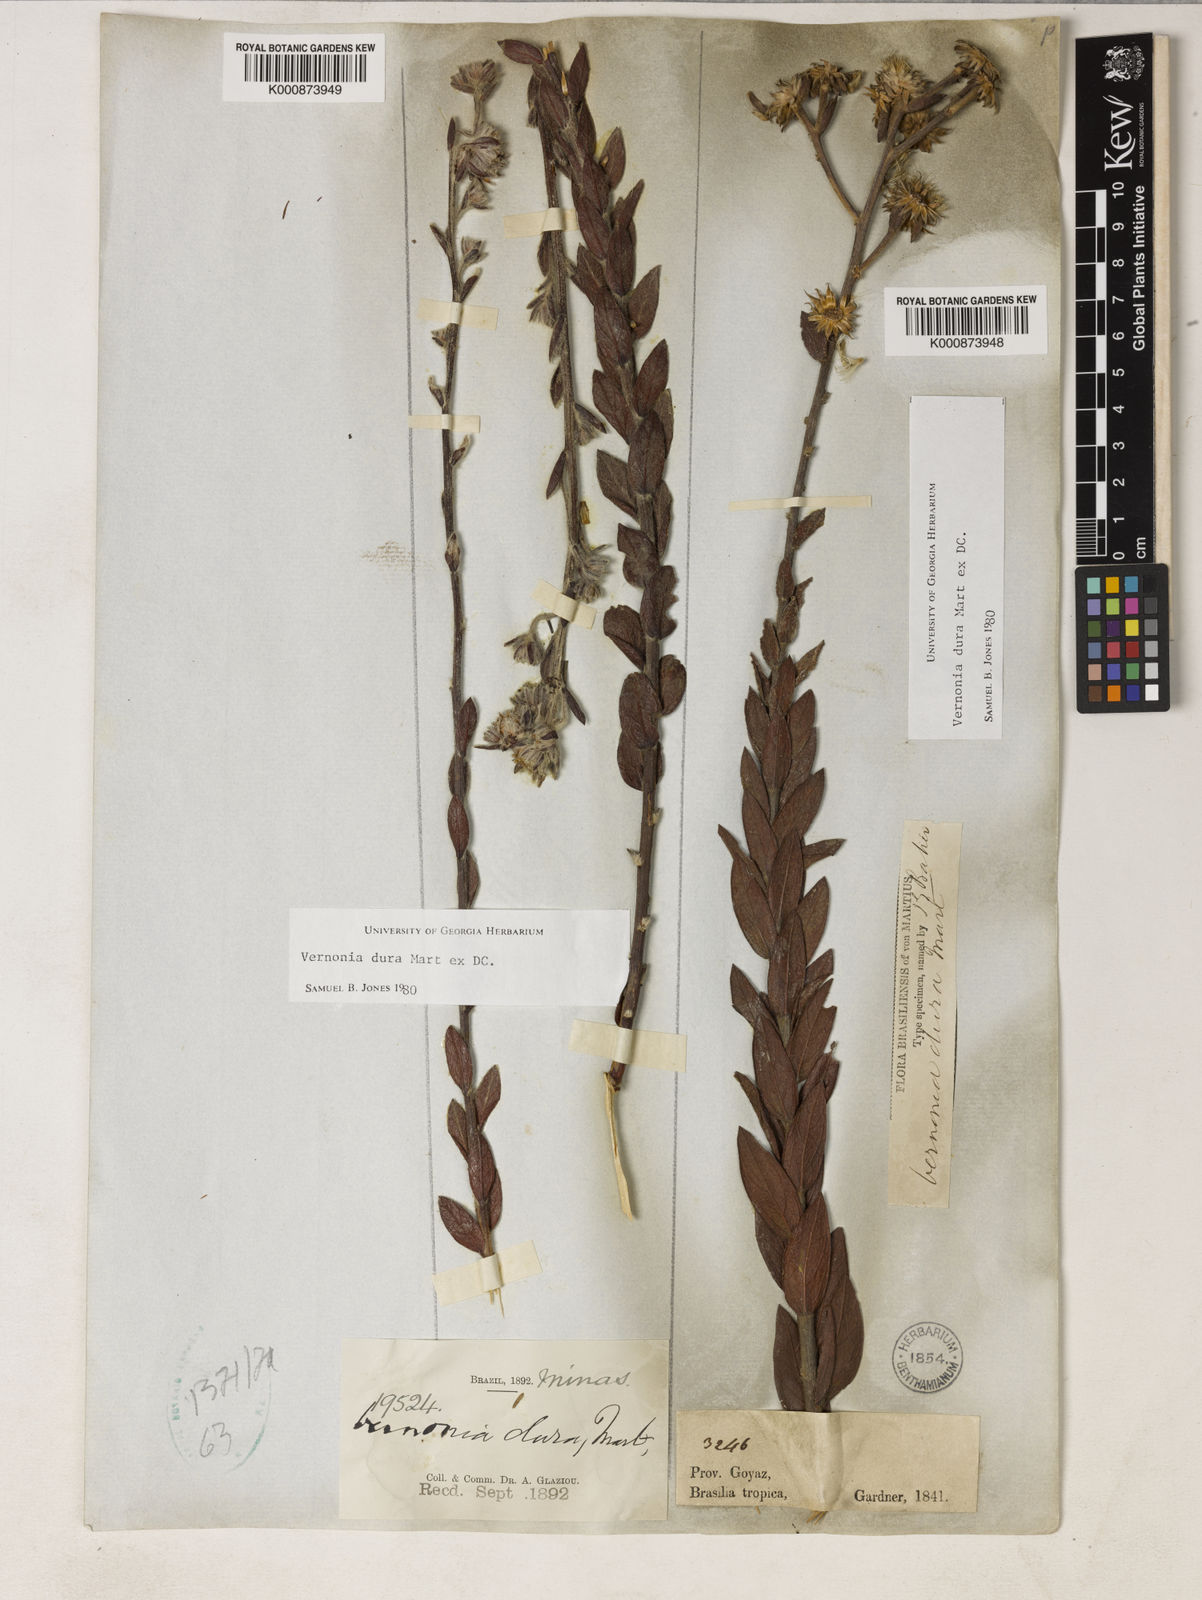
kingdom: Plantae
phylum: Tracheophyta
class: Magnoliopsida
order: Asterales
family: Asteraceae
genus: Lessingianthus
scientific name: Lessingianthus durus
